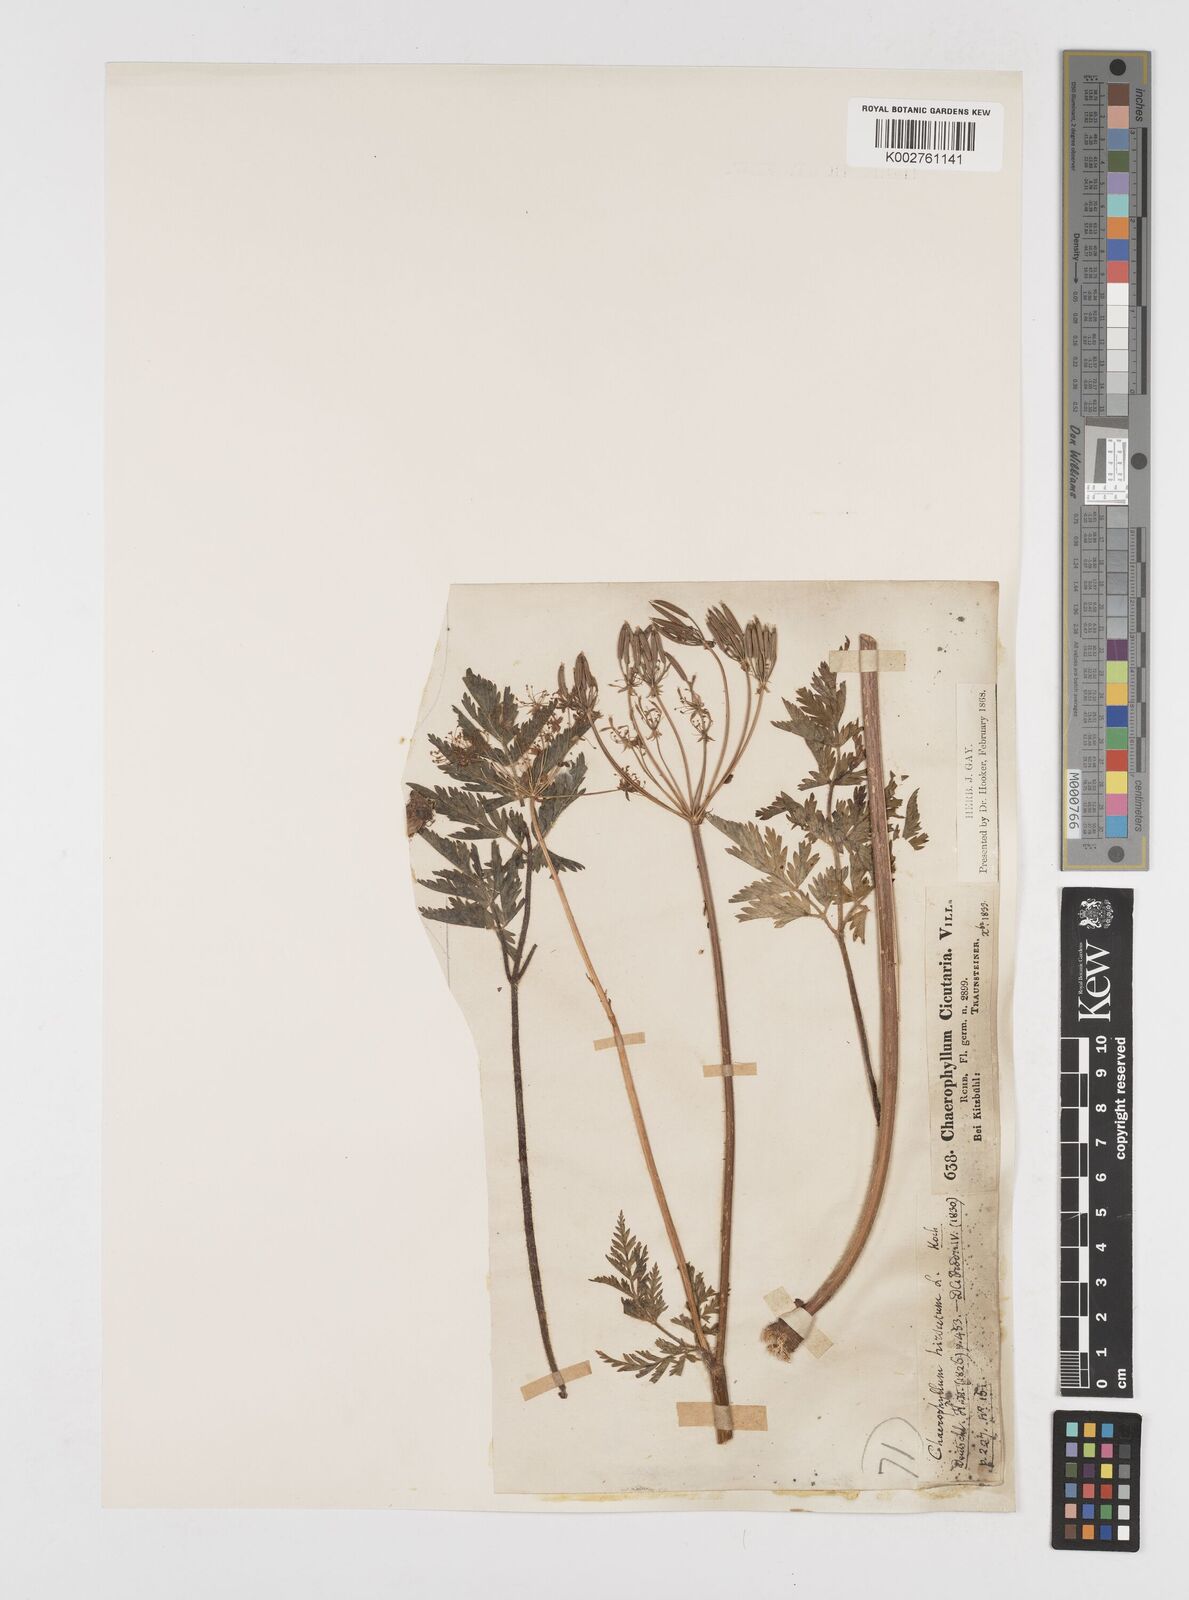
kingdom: Plantae
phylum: Tracheophyta
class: Magnoliopsida
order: Apiales
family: Apiaceae
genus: Chaerophyllum
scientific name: Chaerophyllum hirsutum
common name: Hairy chervil
